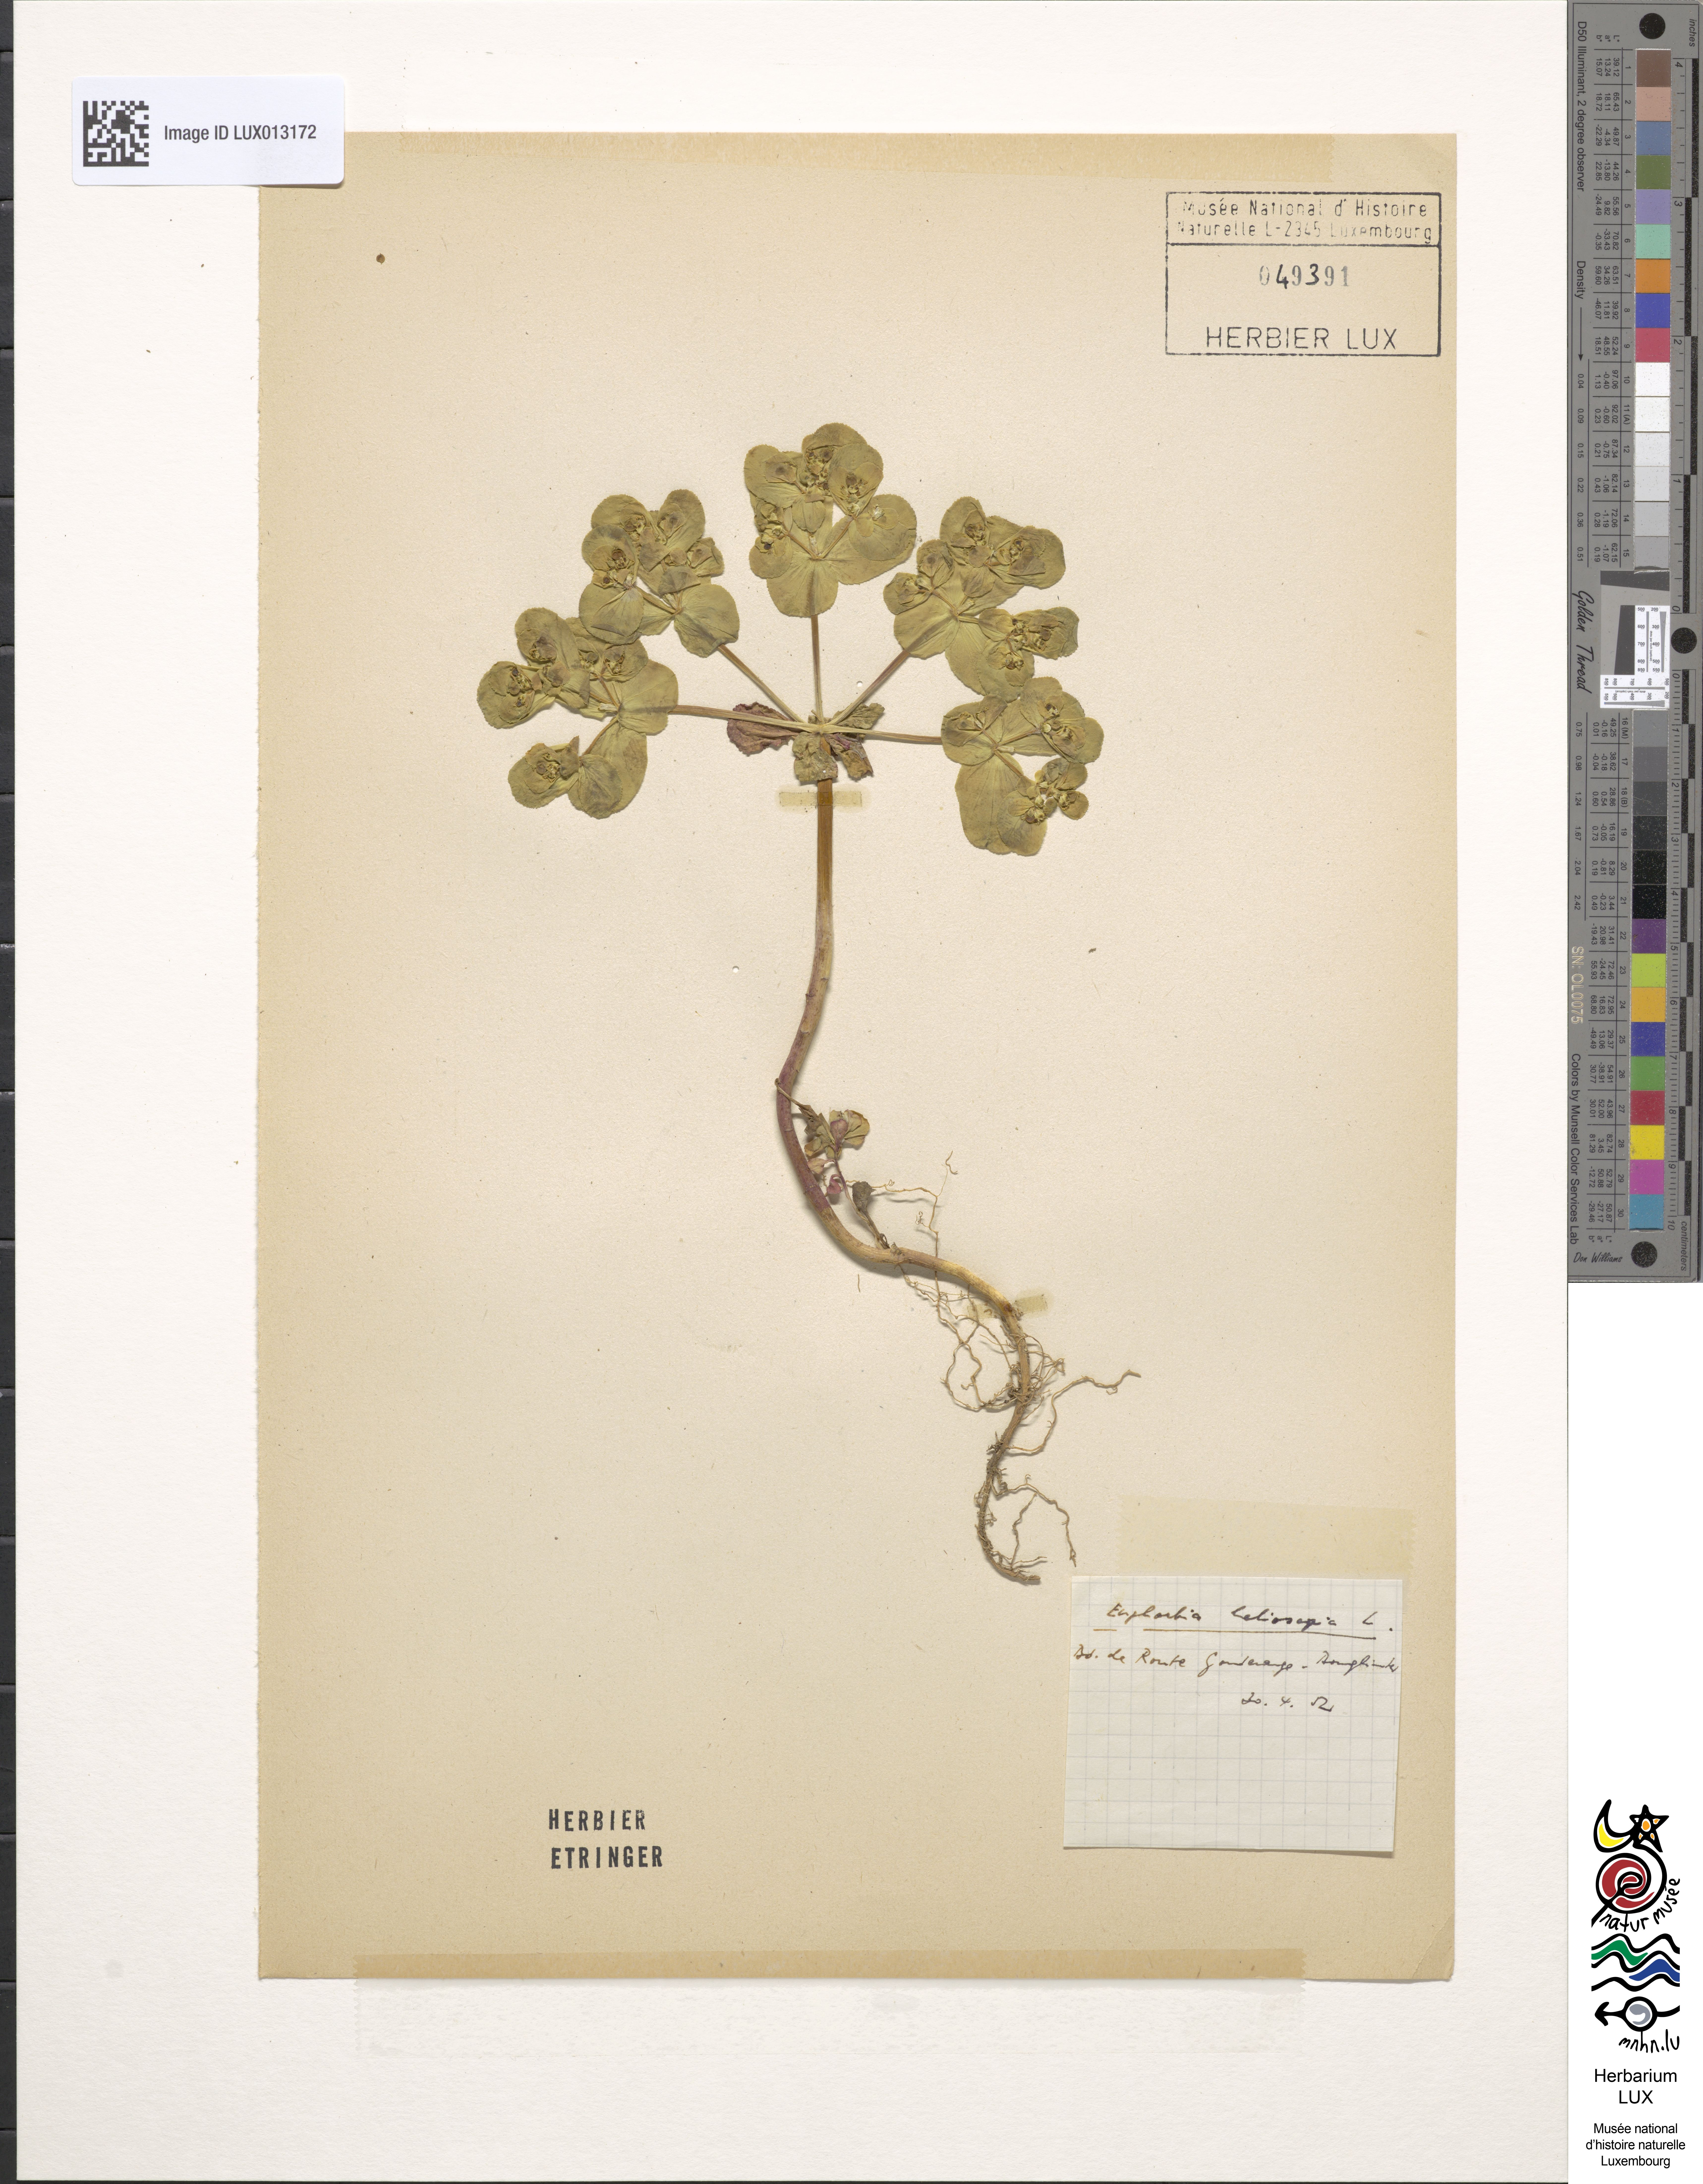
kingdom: Plantae
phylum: Tracheophyta
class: Magnoliopsida
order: Malpighiales
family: Euphorbiaceae
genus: Euphorbia
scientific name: Euphorbia helioscopia
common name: Sun spurge
